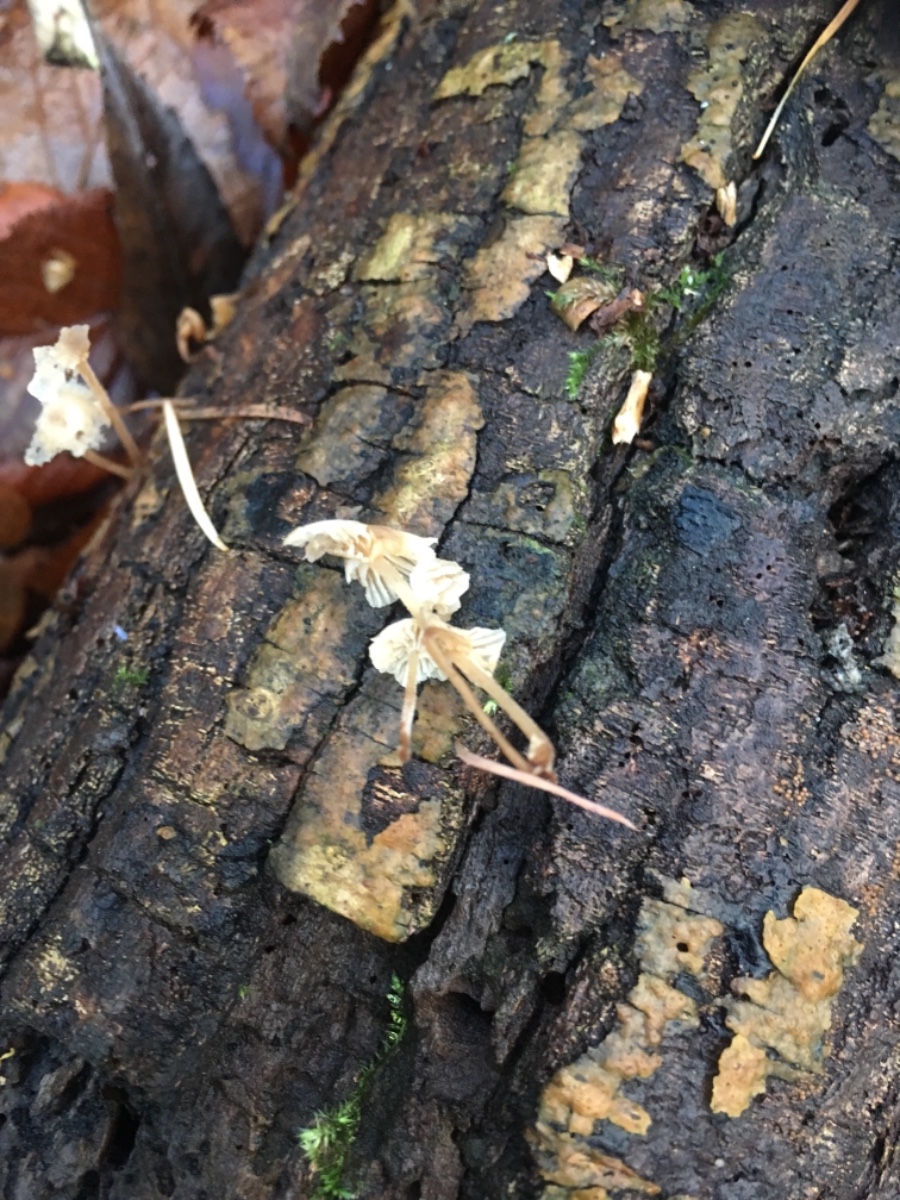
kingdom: Fungi
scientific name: Fungi
